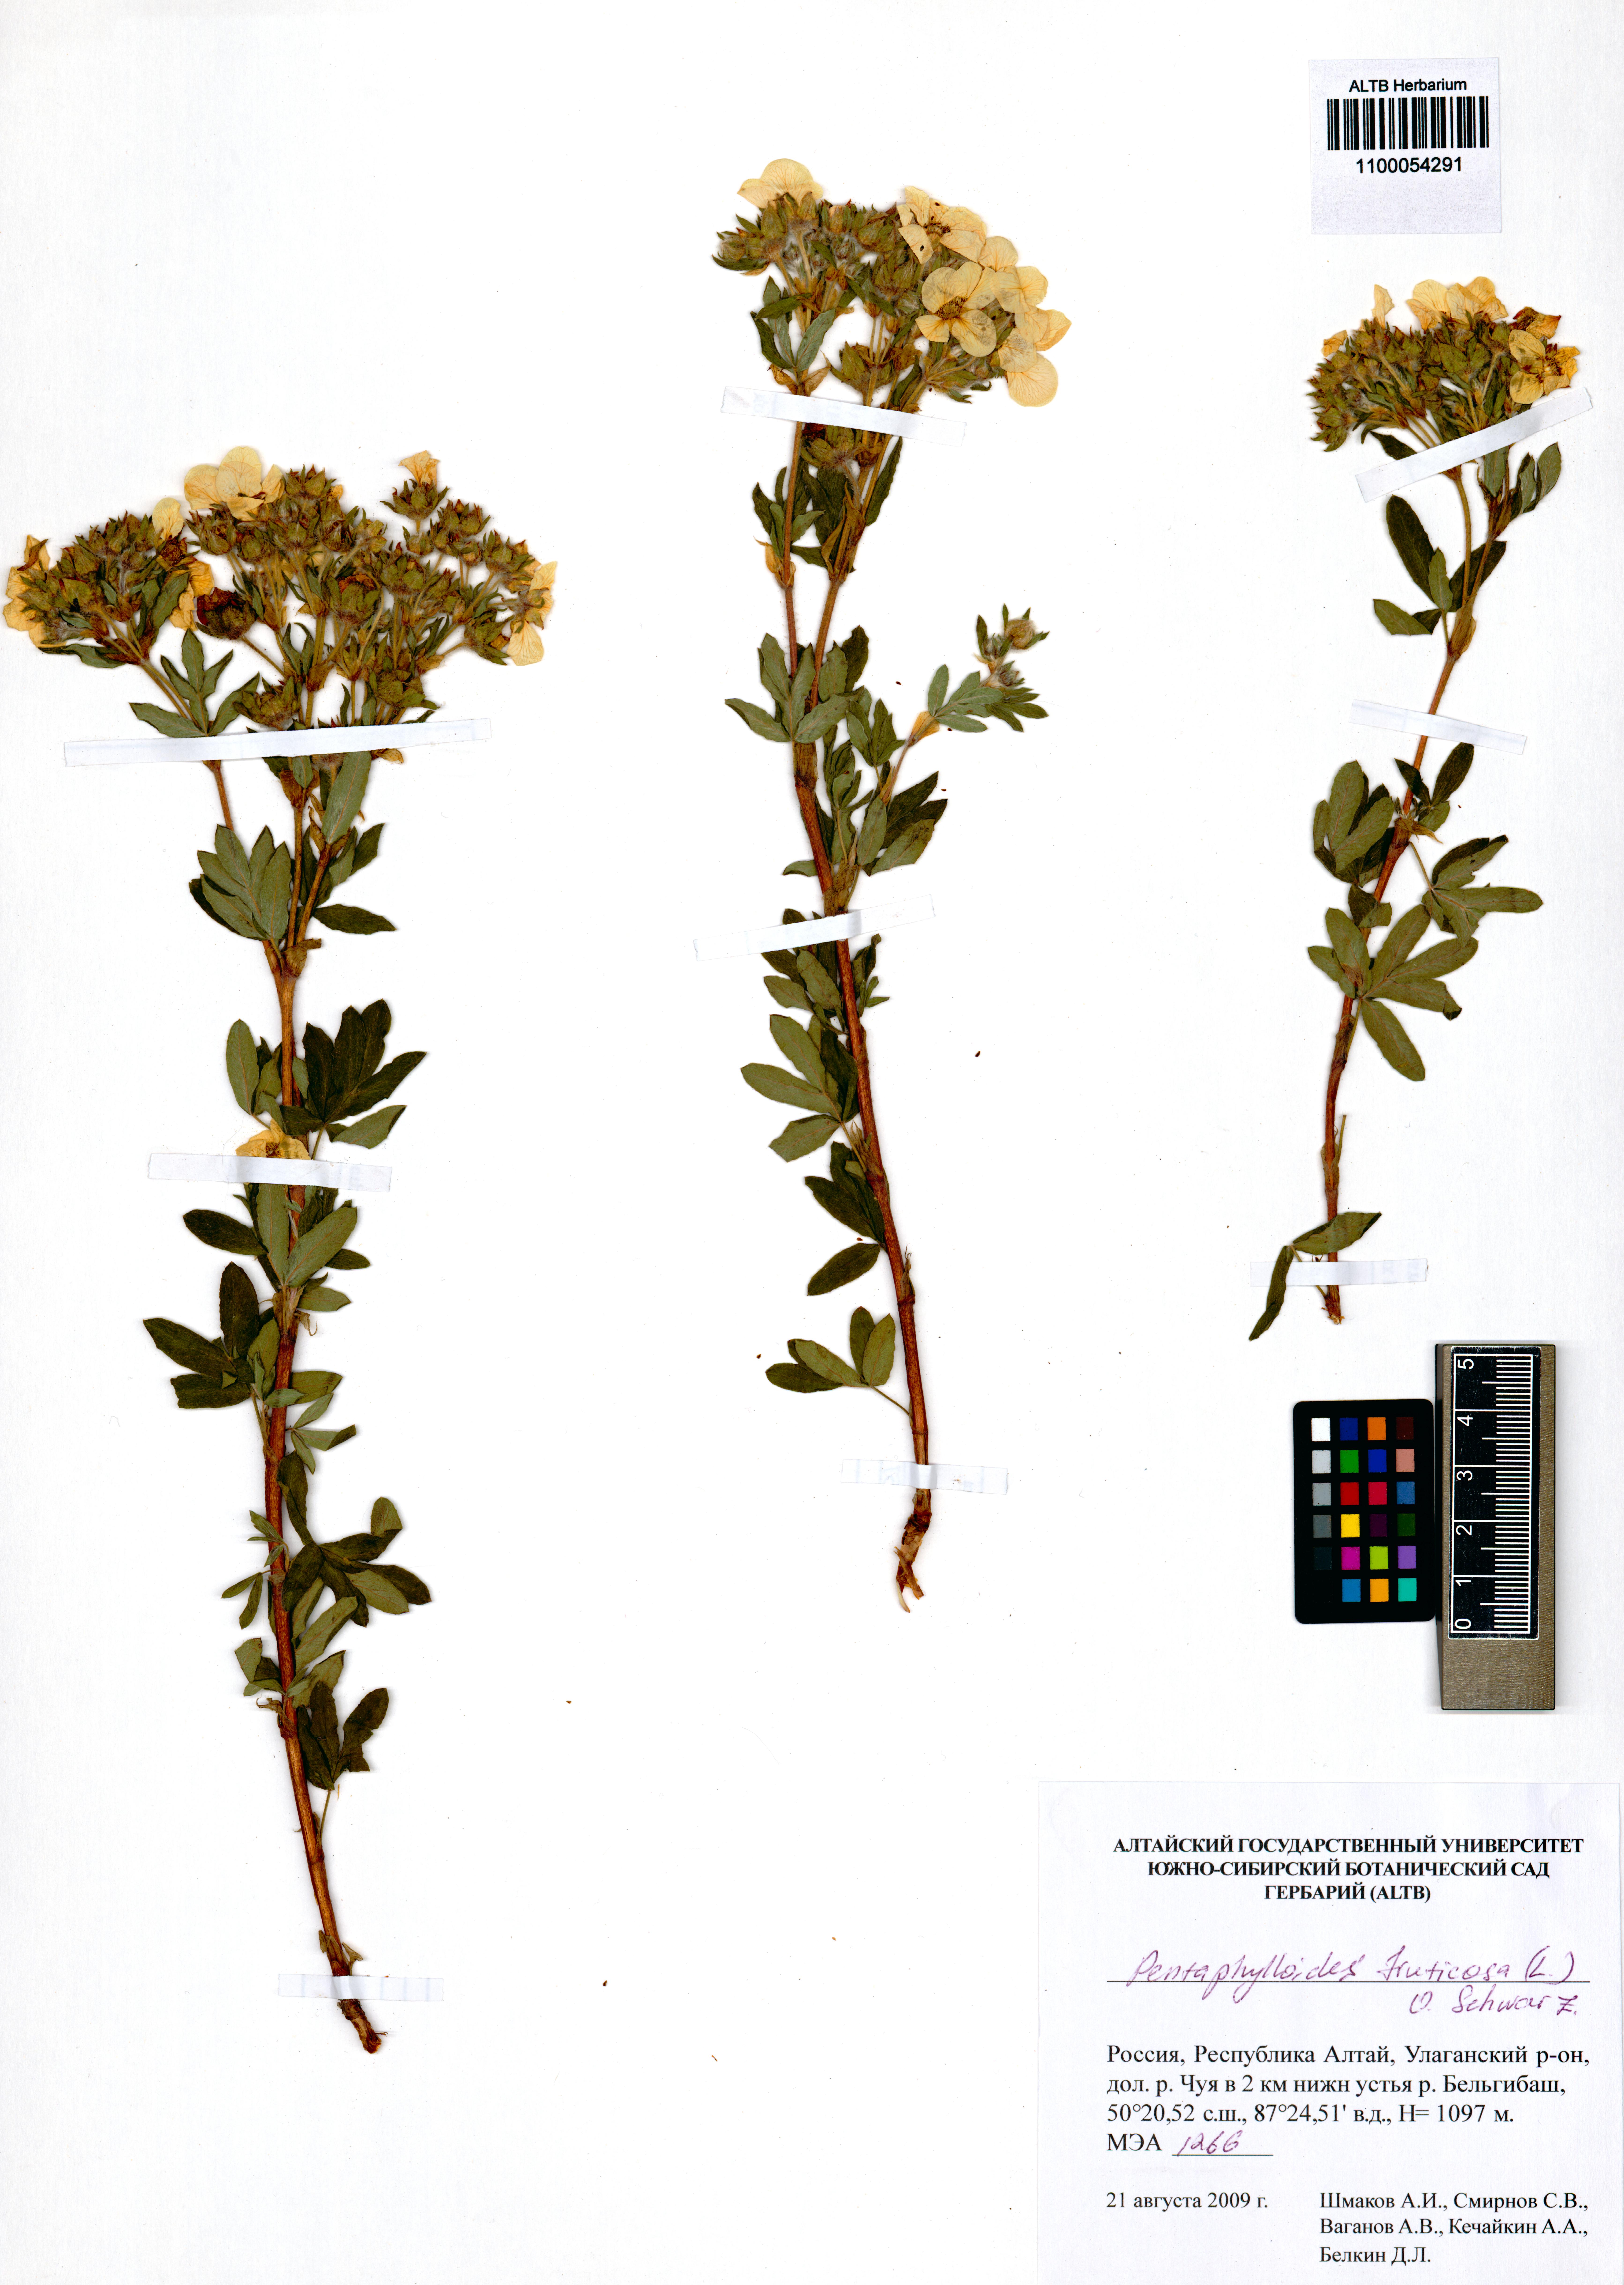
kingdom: Plantae
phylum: Tracheophyta
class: Magnoliopsida
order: Rosales
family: Rosaceae
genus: Dasiphora
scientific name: Dasiphora fruticosa
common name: Shrubby cinquefoil
